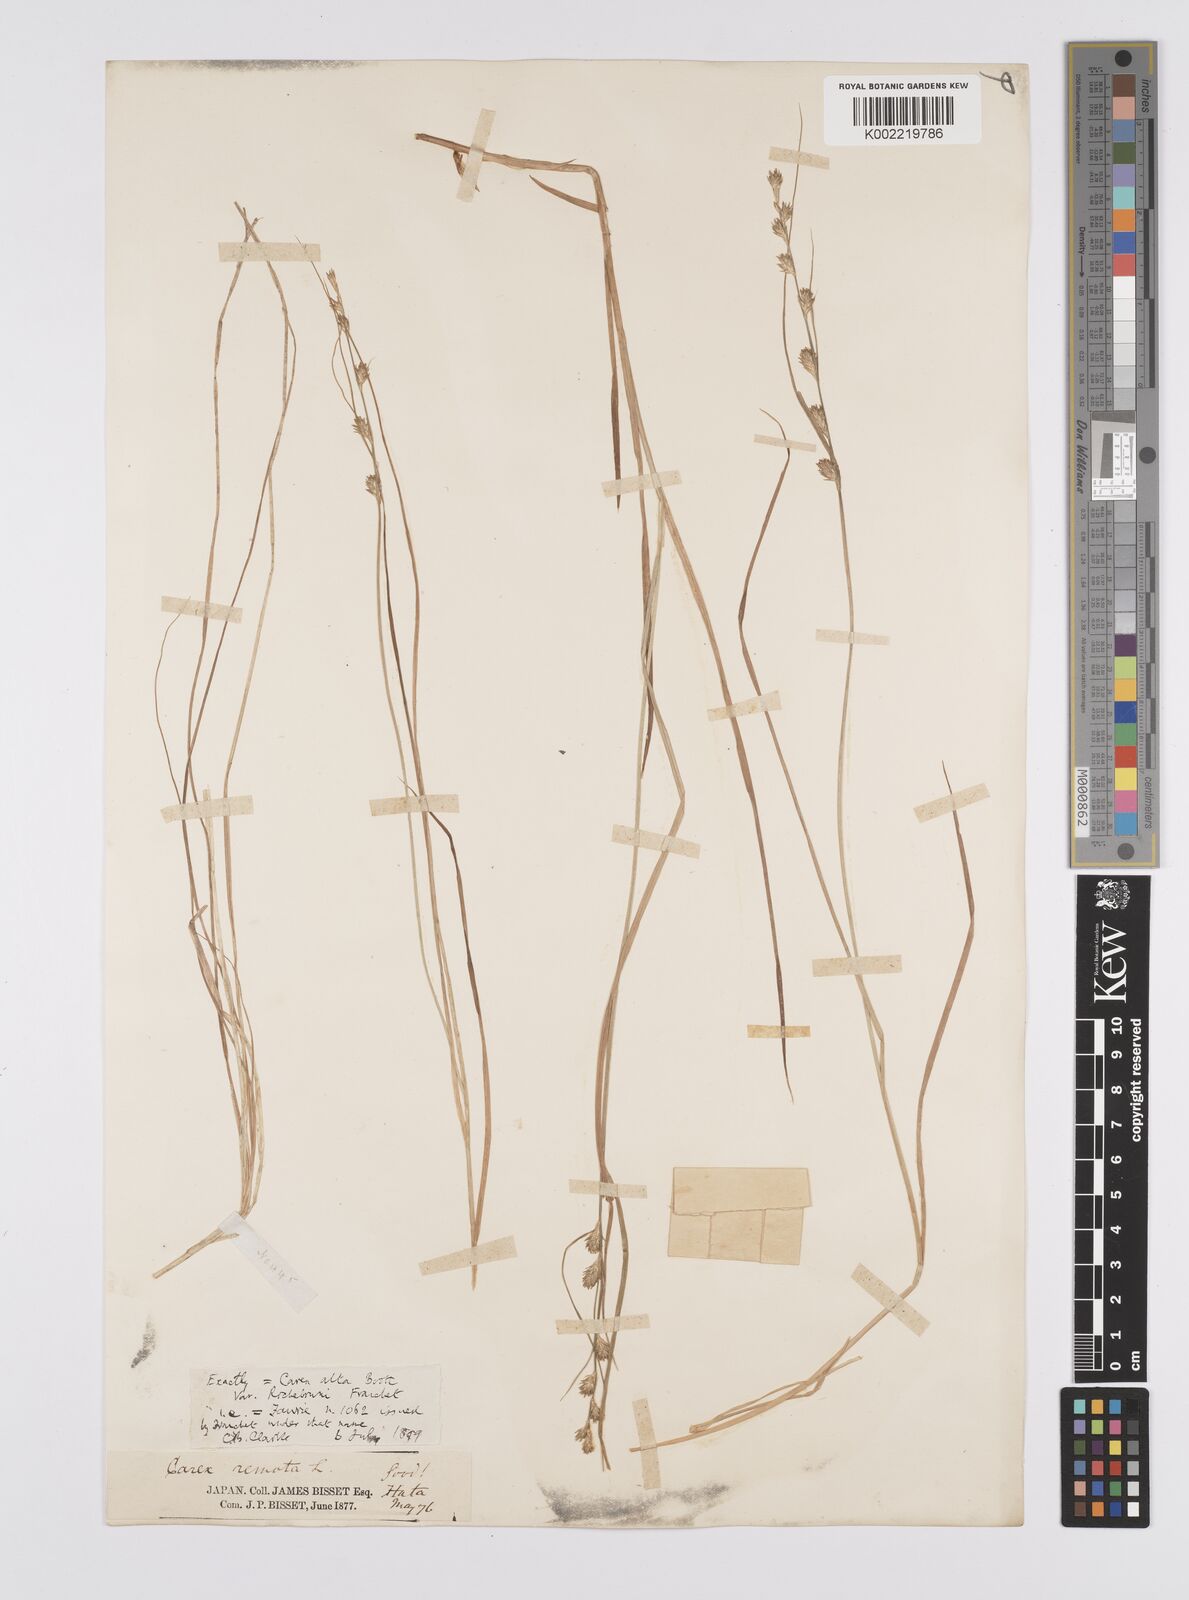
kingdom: Plantae
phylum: Tracheophyta
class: Liliopsida
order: Poales
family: Cyperaceae
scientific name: Cyperaceae
